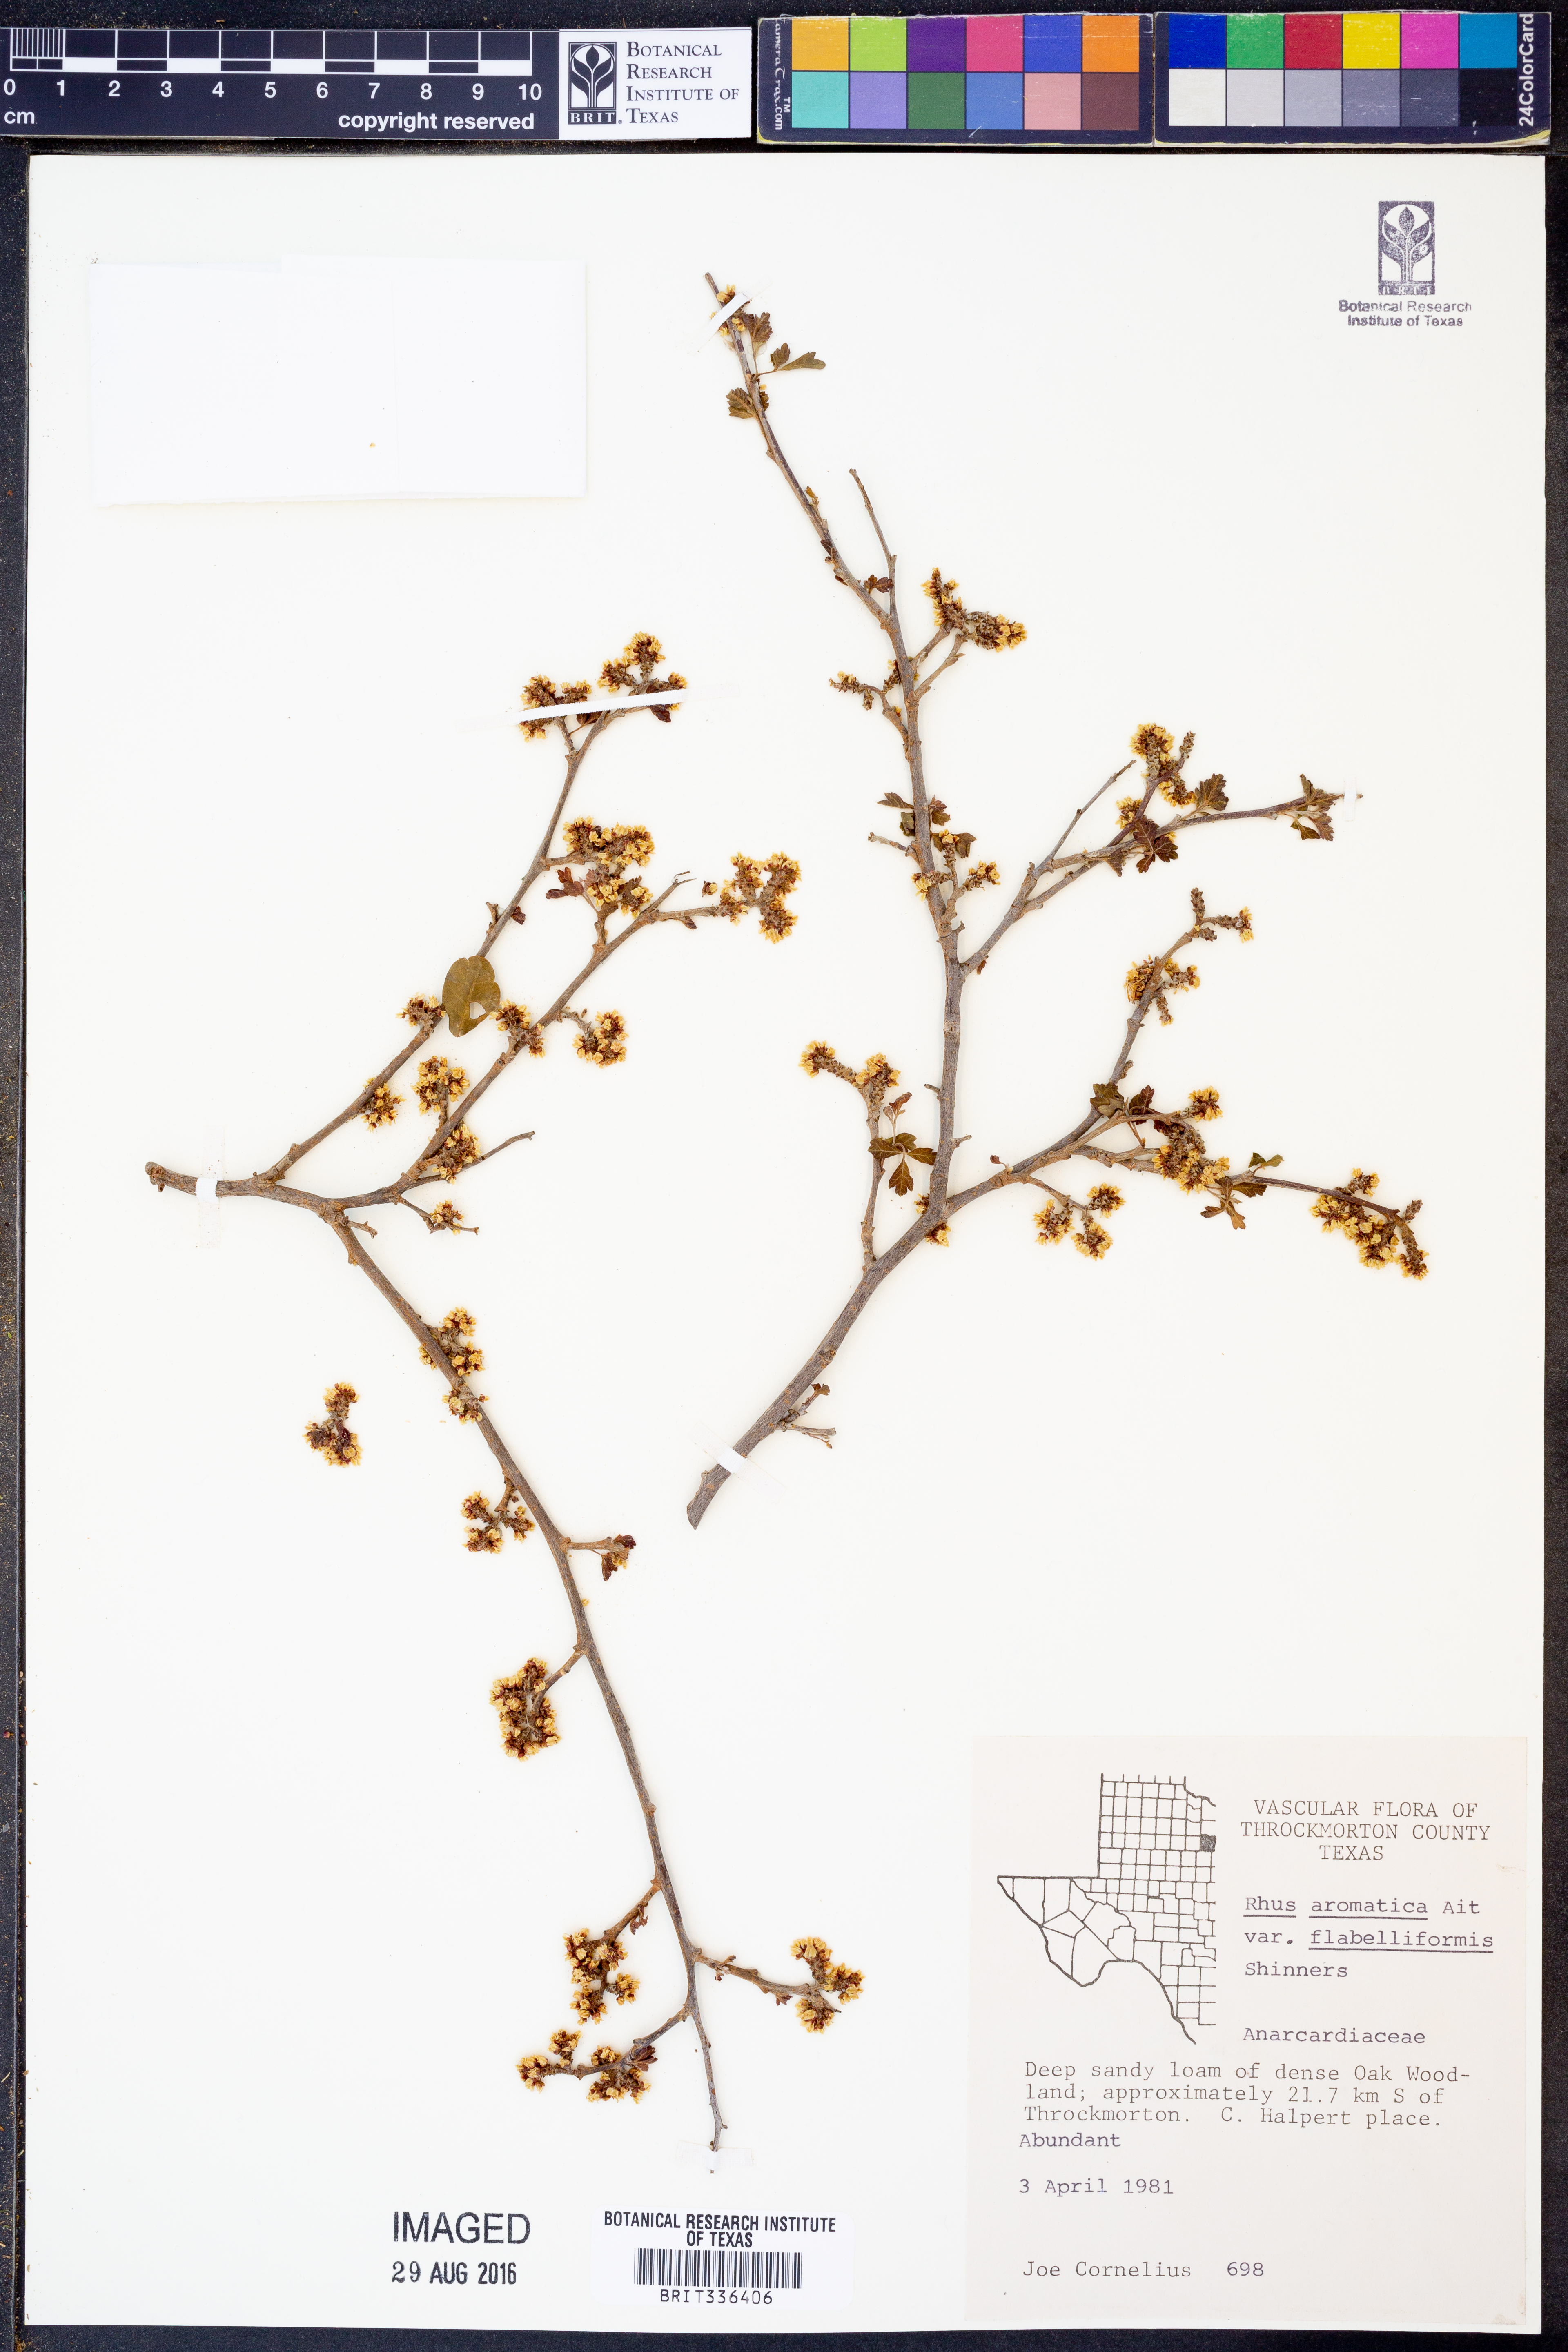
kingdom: Plantae
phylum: Tracheophyta
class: Magnoliopsida
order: Sapindales
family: Anacardiaceae
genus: Rhus
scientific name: Rhus trilobata
